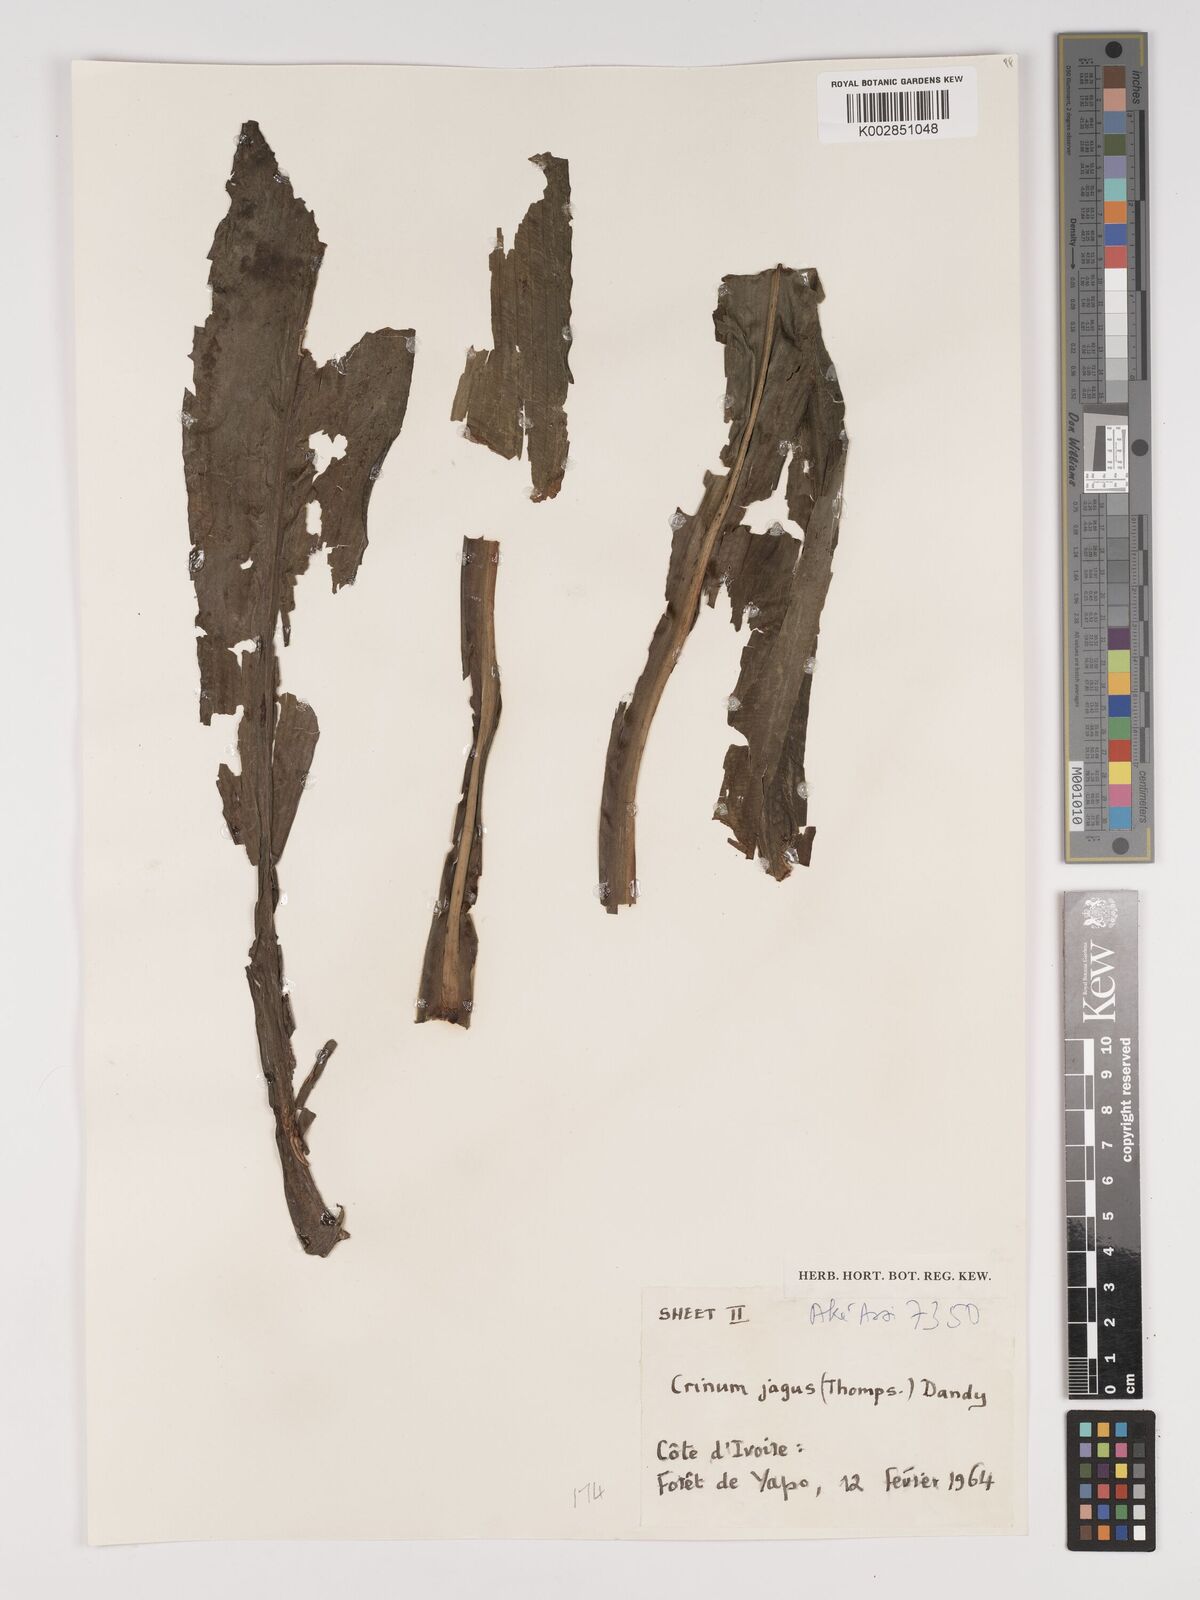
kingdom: Plantae
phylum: Tracheophyta
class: Liliopsida
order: Asparagales
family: Amaryllidaceae
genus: Crinum
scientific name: Crinum jagus
